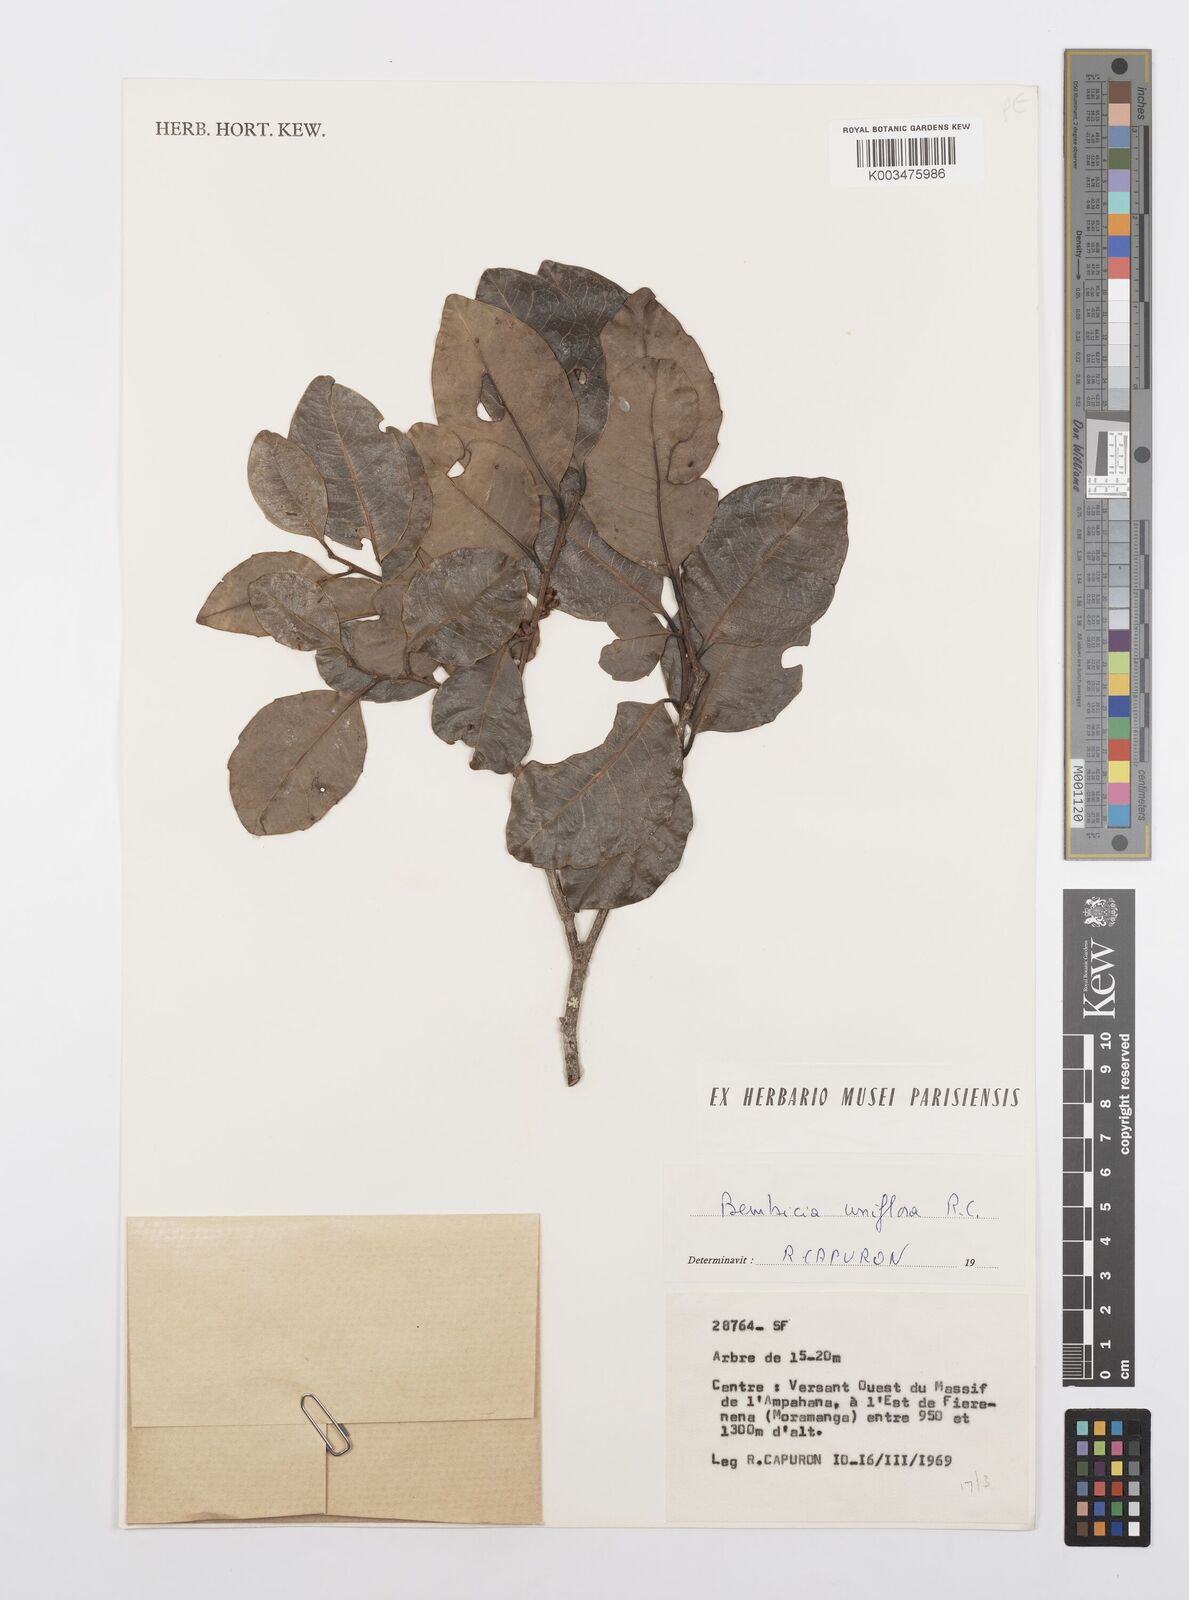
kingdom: Plantae
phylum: Tracheophyta
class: Magnoliopsida
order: Malpighiales
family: Salicaceae
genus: Bembicia
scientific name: Bembicia
